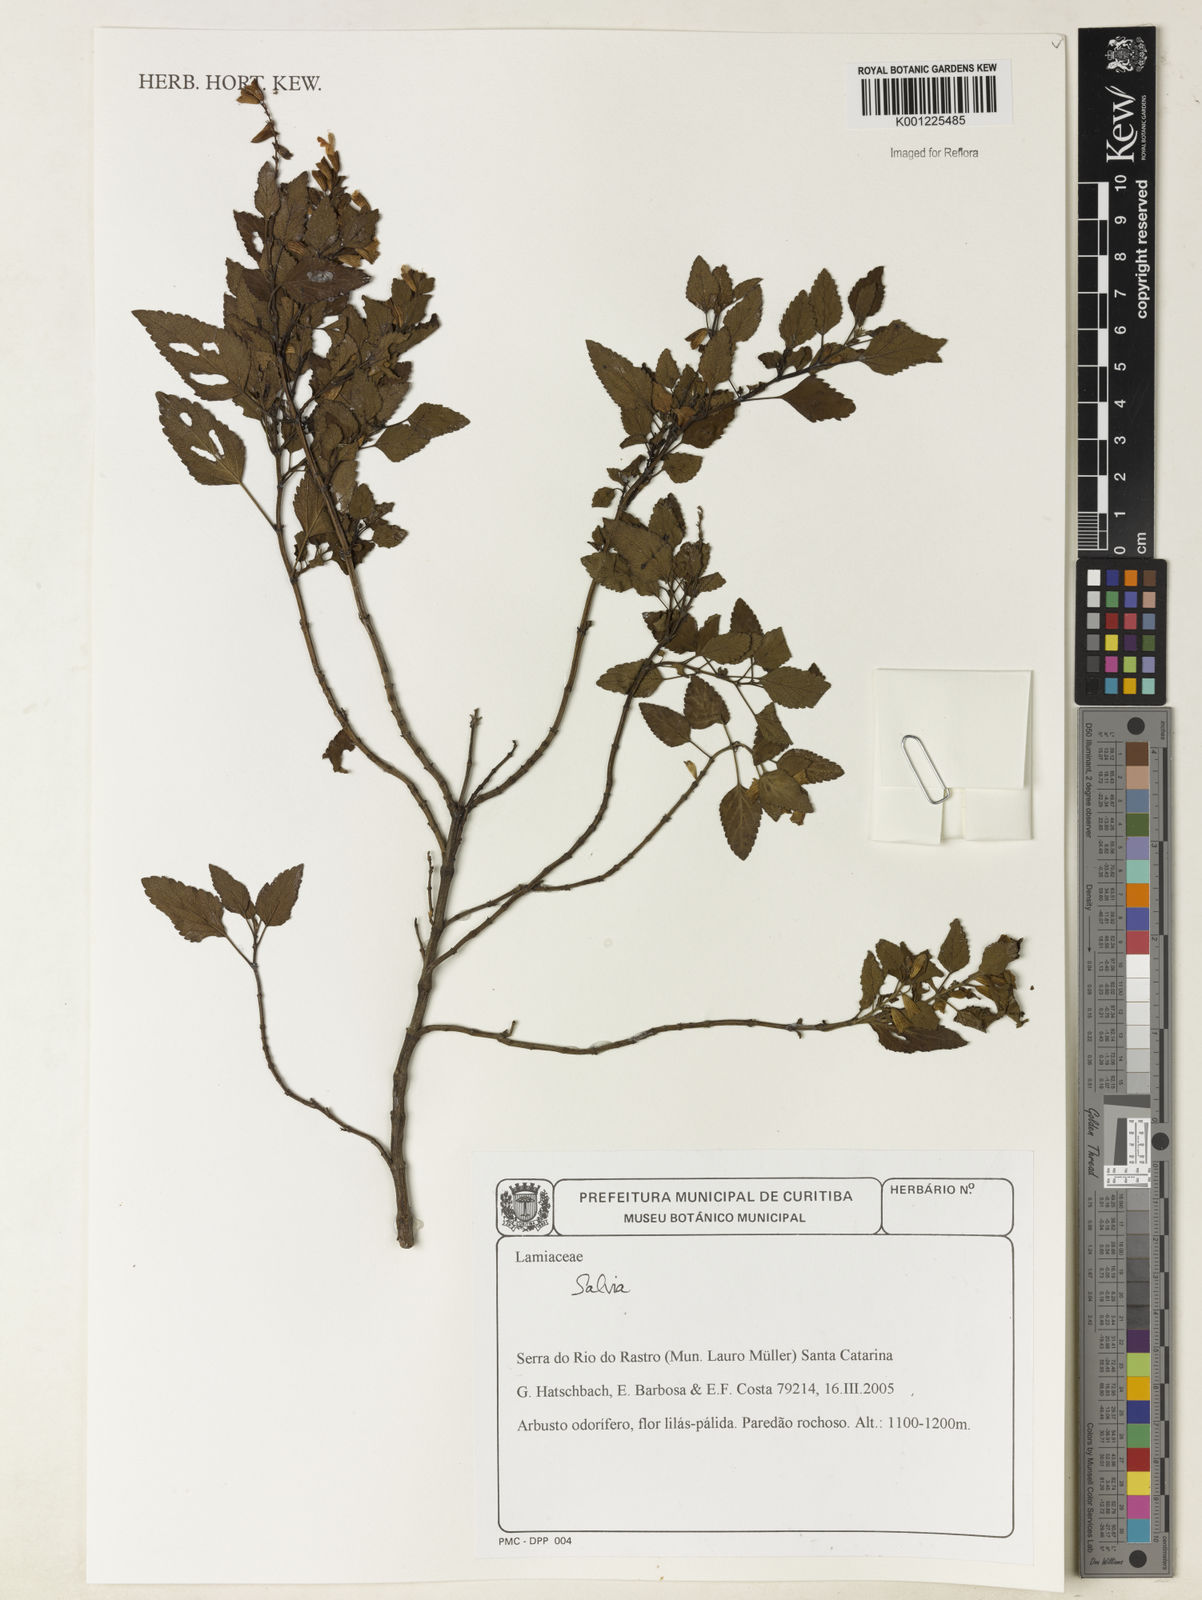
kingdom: Plantae
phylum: Tracheophyta
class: Magnoliopsida
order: Lamiales
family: Lamiaceae
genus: Salvia
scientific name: Salvia
